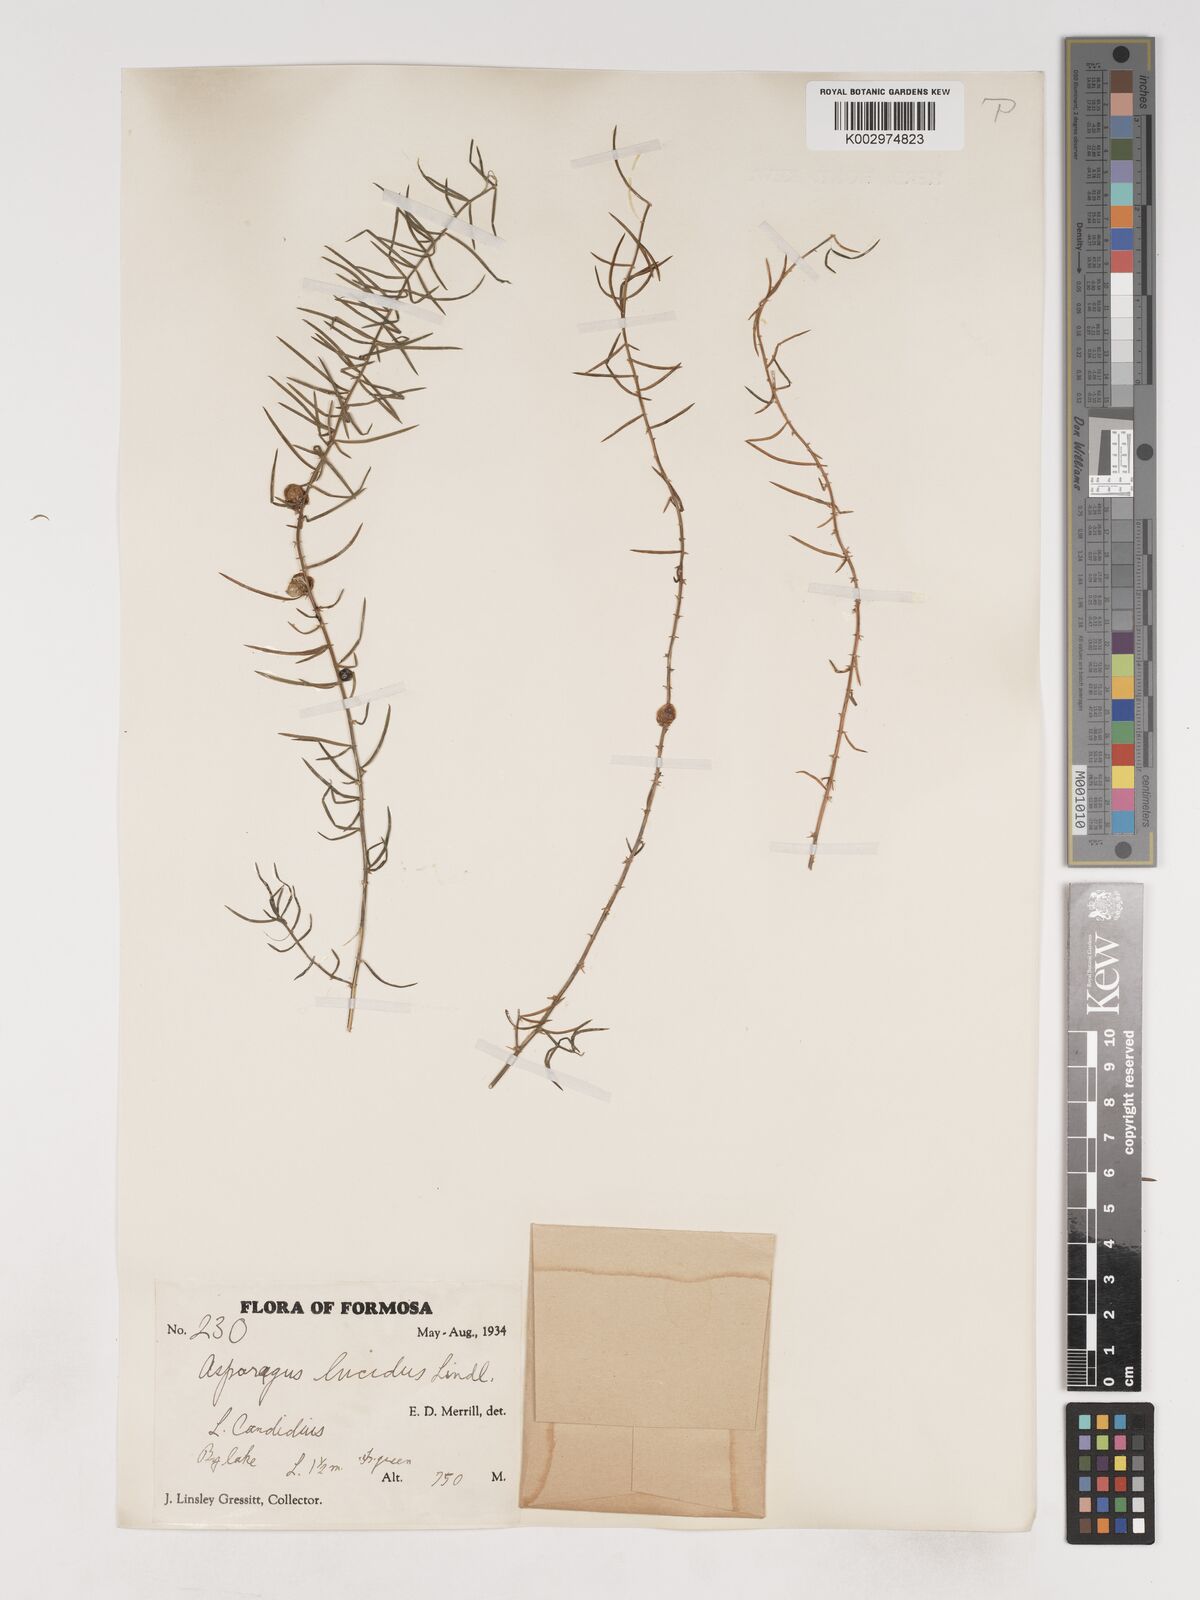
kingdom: Plantae
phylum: Tracheophyta
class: Liliopsida
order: Asparagales
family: Asparagaceae
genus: Asparagus
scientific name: Asparagus cochinchinensis
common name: Chinese asparagus
